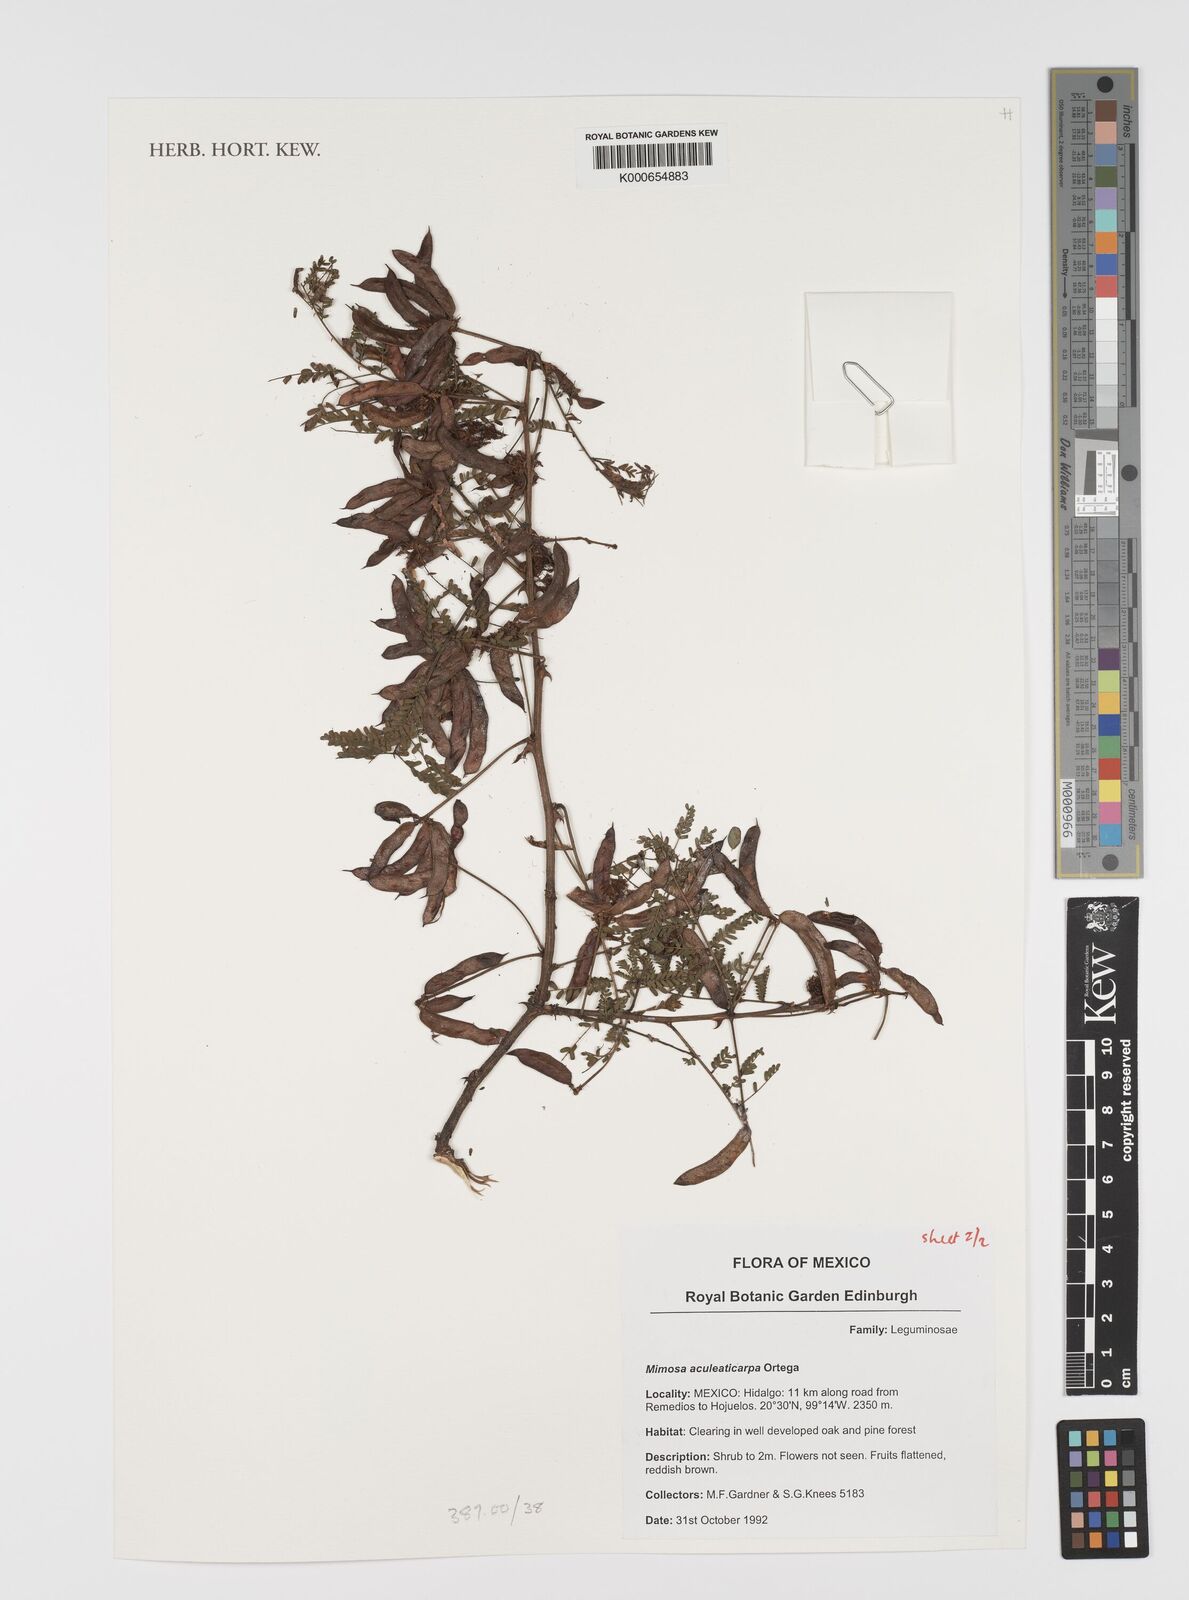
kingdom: Plantae
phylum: Tracheophyta
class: Magnoliopsida
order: Fabales
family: Fabaceae
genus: Mimosa
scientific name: Mimosa aculeaticarpa
